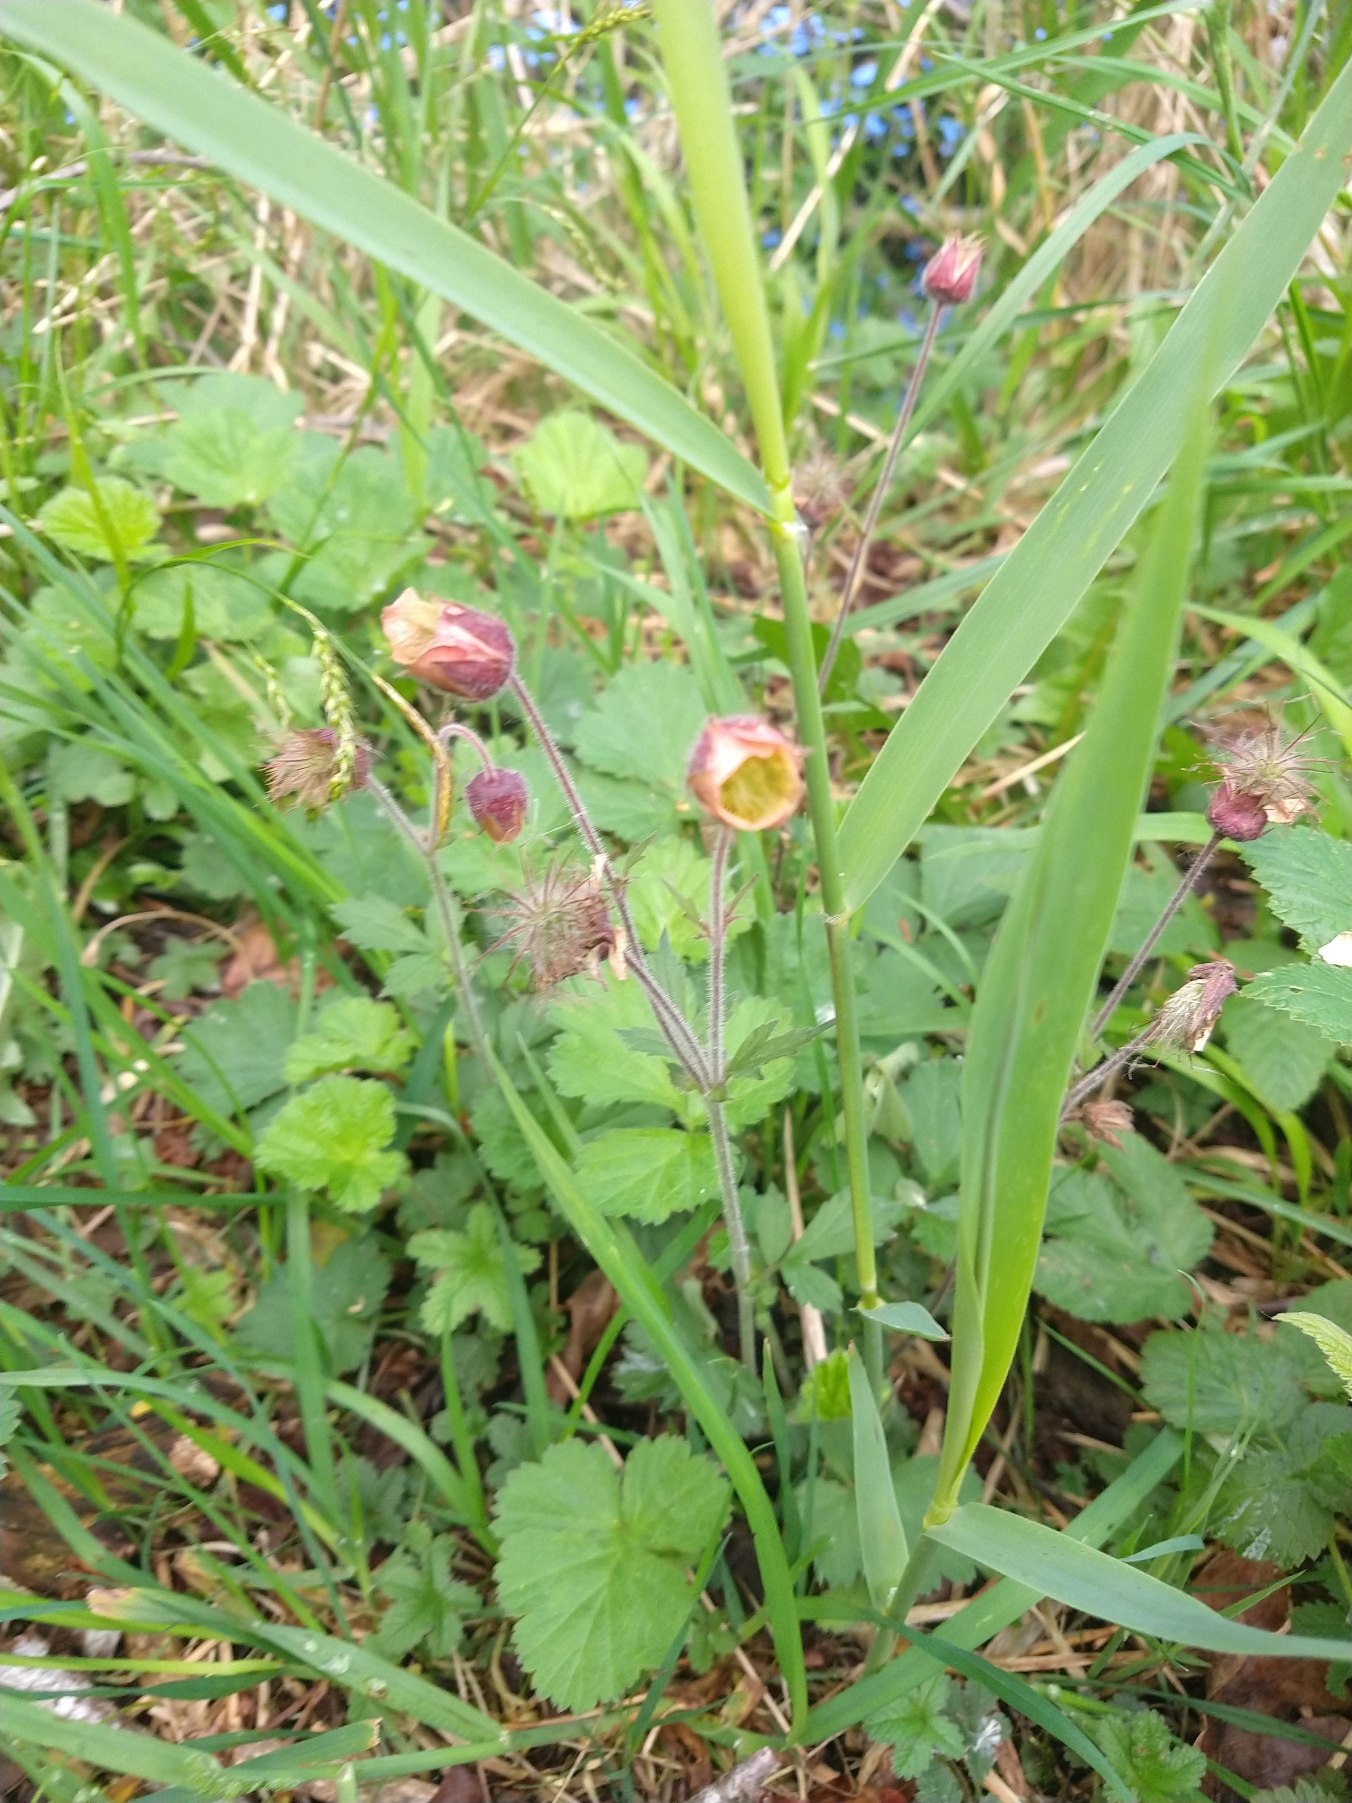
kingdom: Plantae
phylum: Tracheophyta
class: Magnoliopsida
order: Rosales
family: Rosaceae
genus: Geum
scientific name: Geum rivale
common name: Eng-nellikerod
